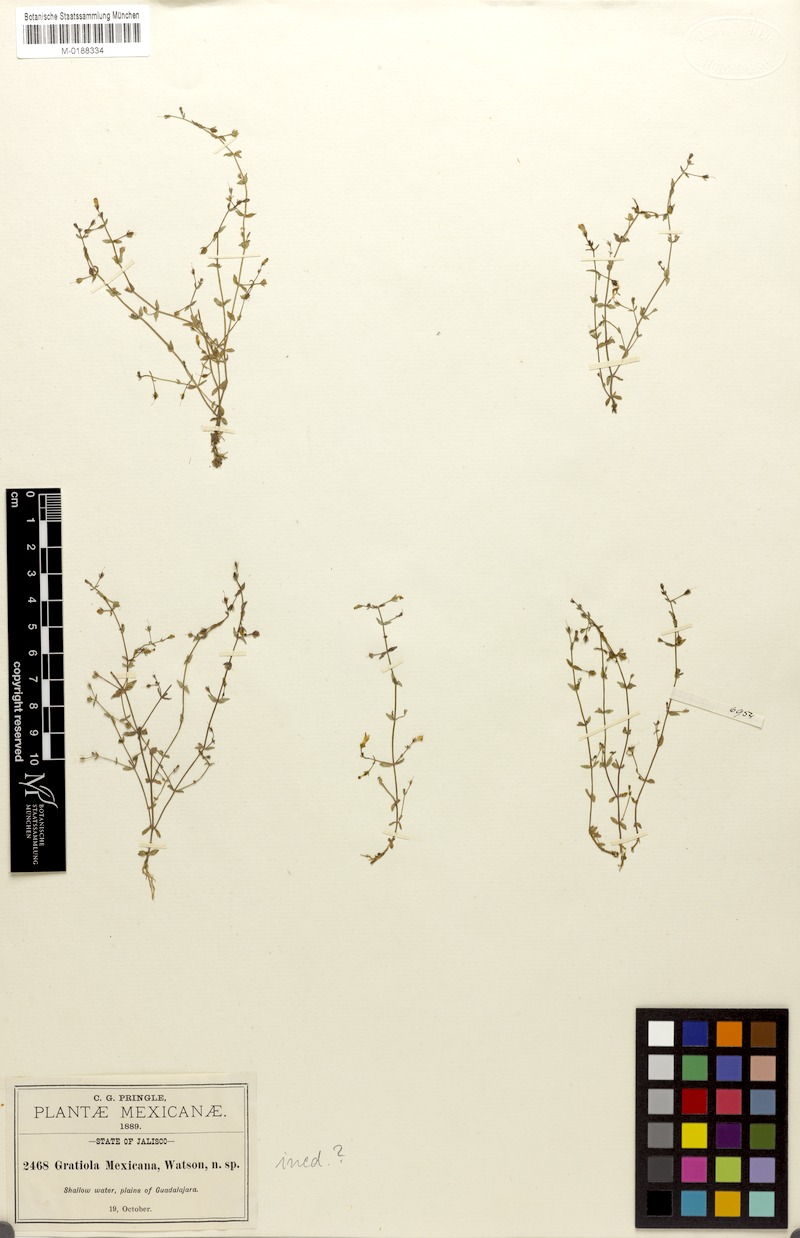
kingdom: Plantae
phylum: Tracheophyta
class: Magnoliopsida
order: Lamiales
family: Linderniaceae
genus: Lindernia
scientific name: Lindernia mexicana
